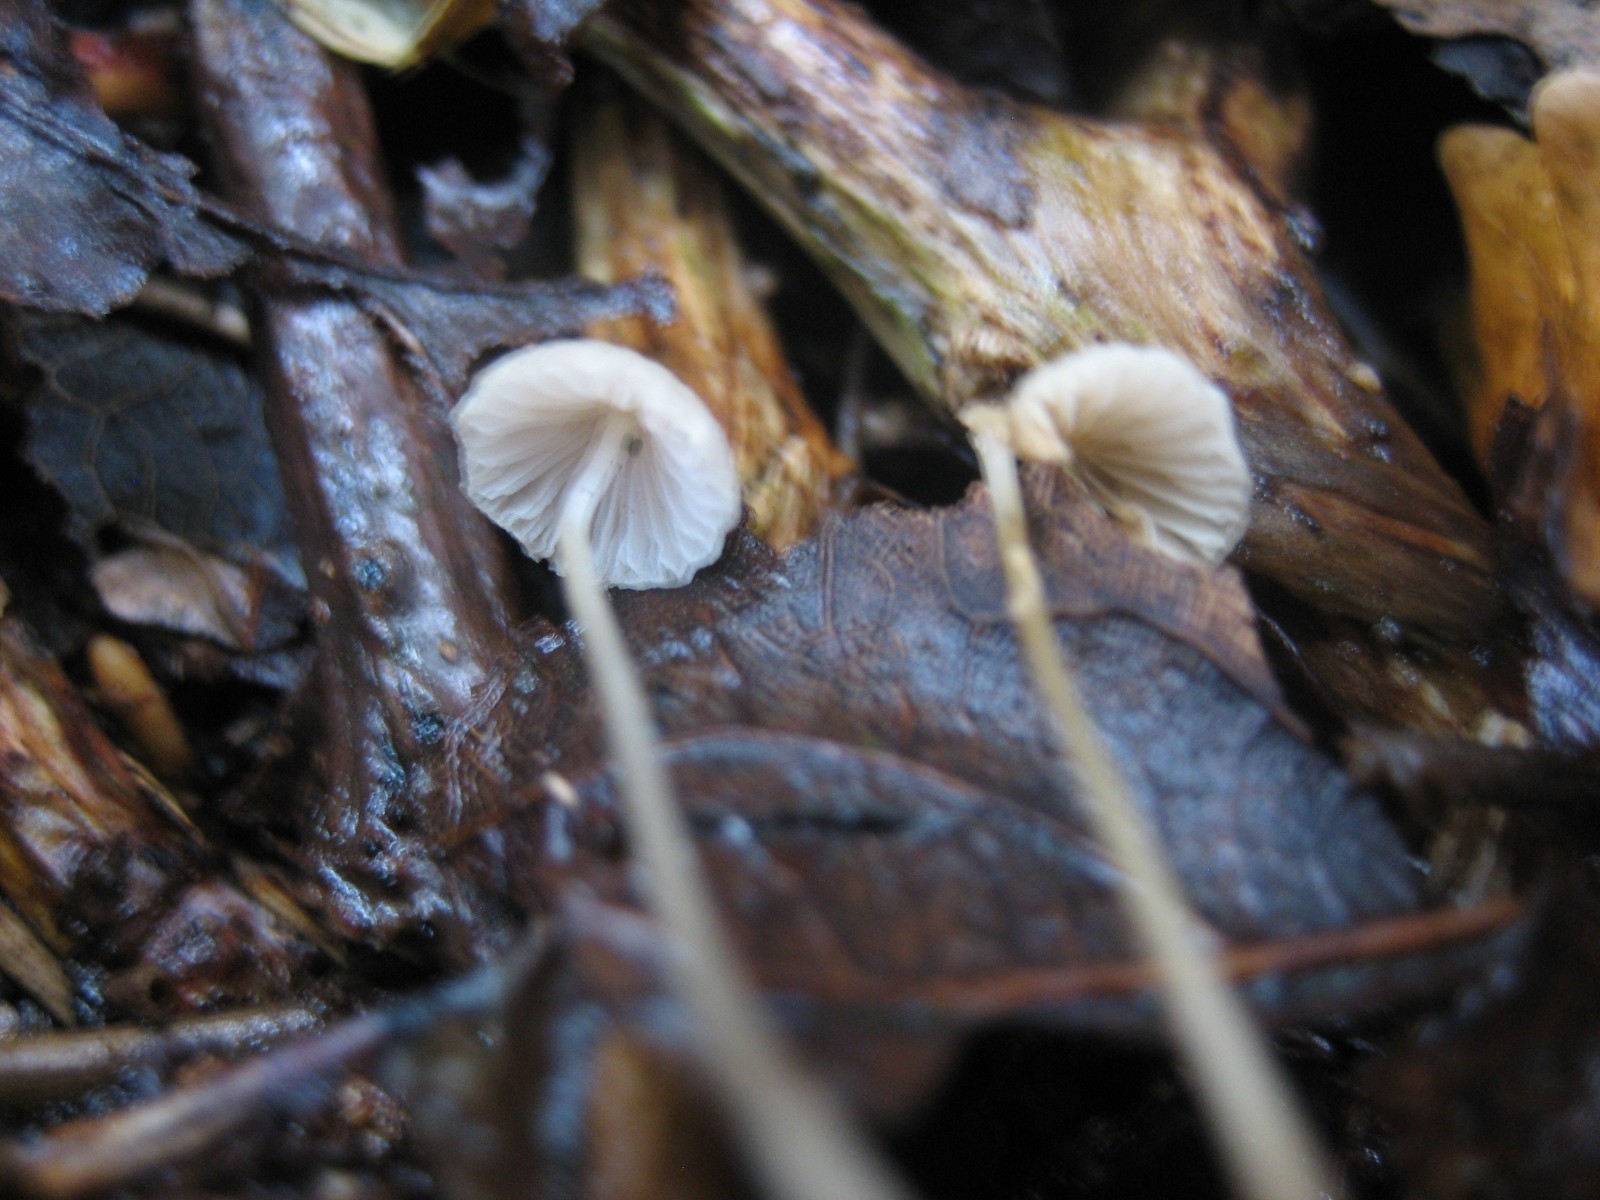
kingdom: Fungi
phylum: Basidiomycota
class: Agaricomycetes
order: Agaricales
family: Mycenaceae
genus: Mycena
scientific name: Mycena
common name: huesvamp
